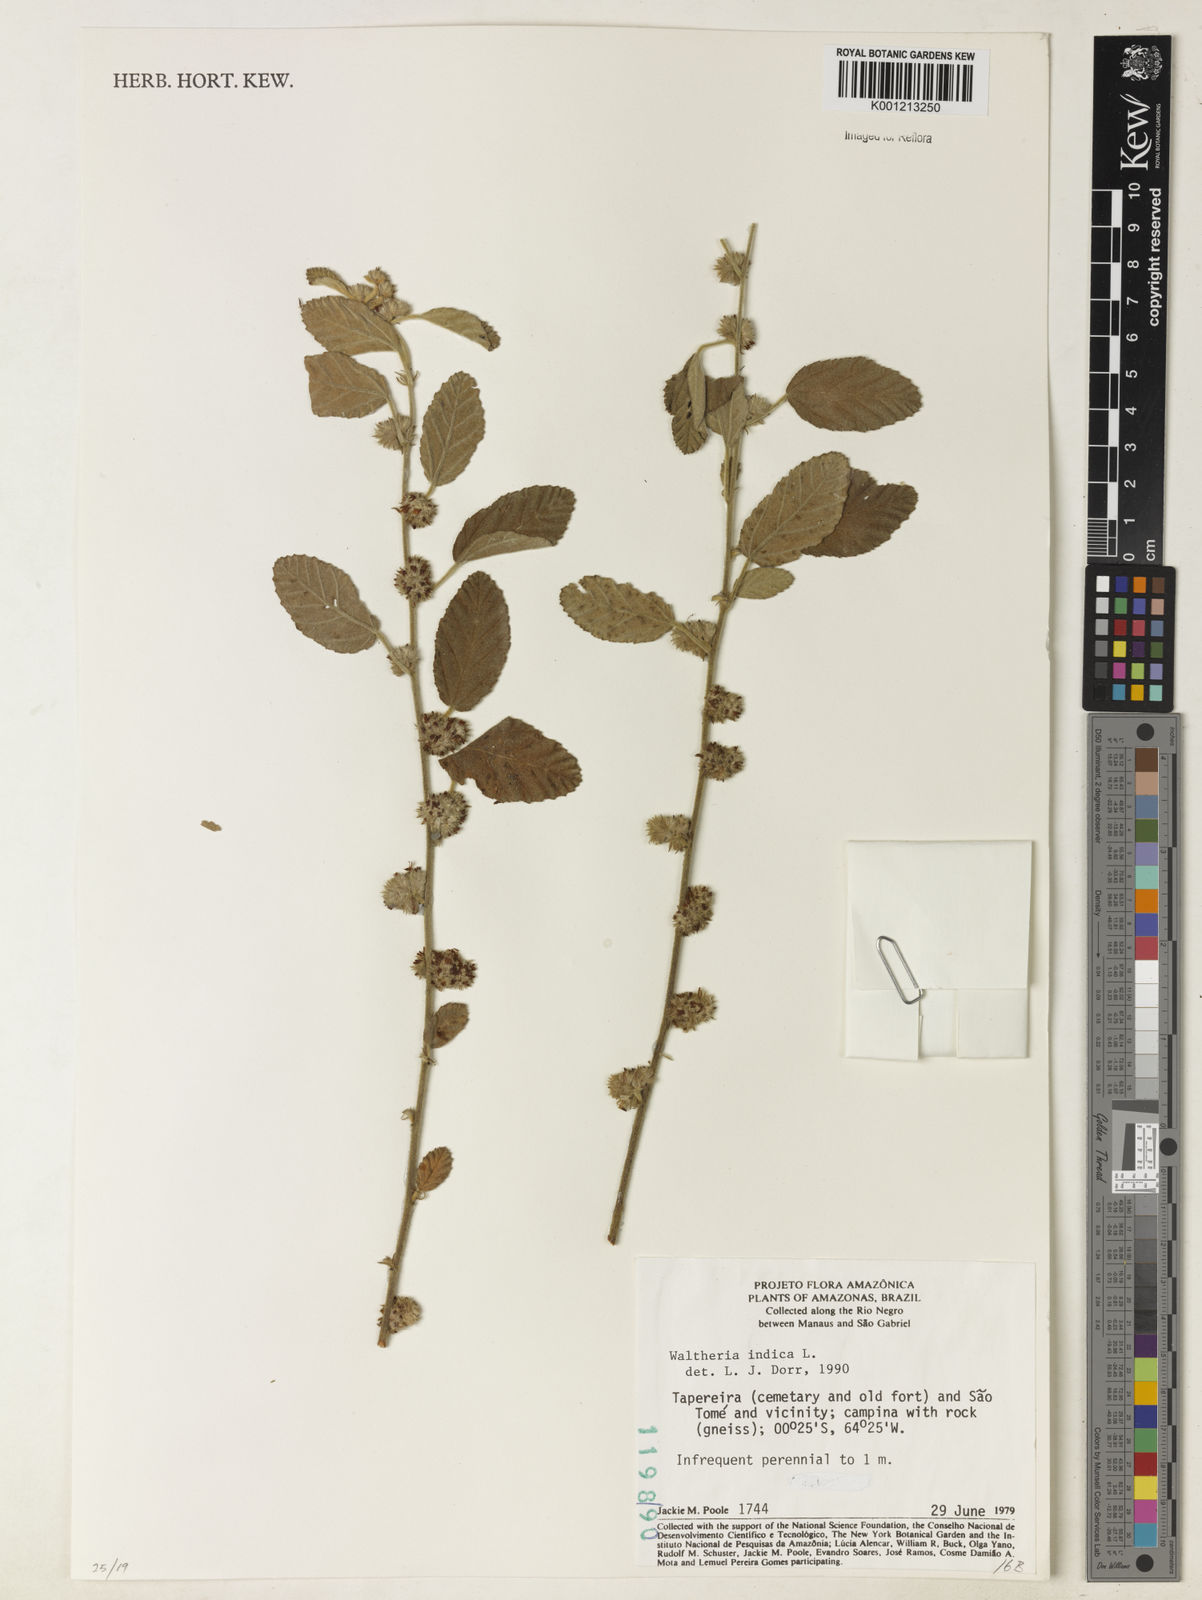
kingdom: Plantae
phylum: Tracheophyta
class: Magnoliopsida
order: Malvales
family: Malvaceae
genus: Waltheria
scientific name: Waltheria indica
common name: Leather-coat
